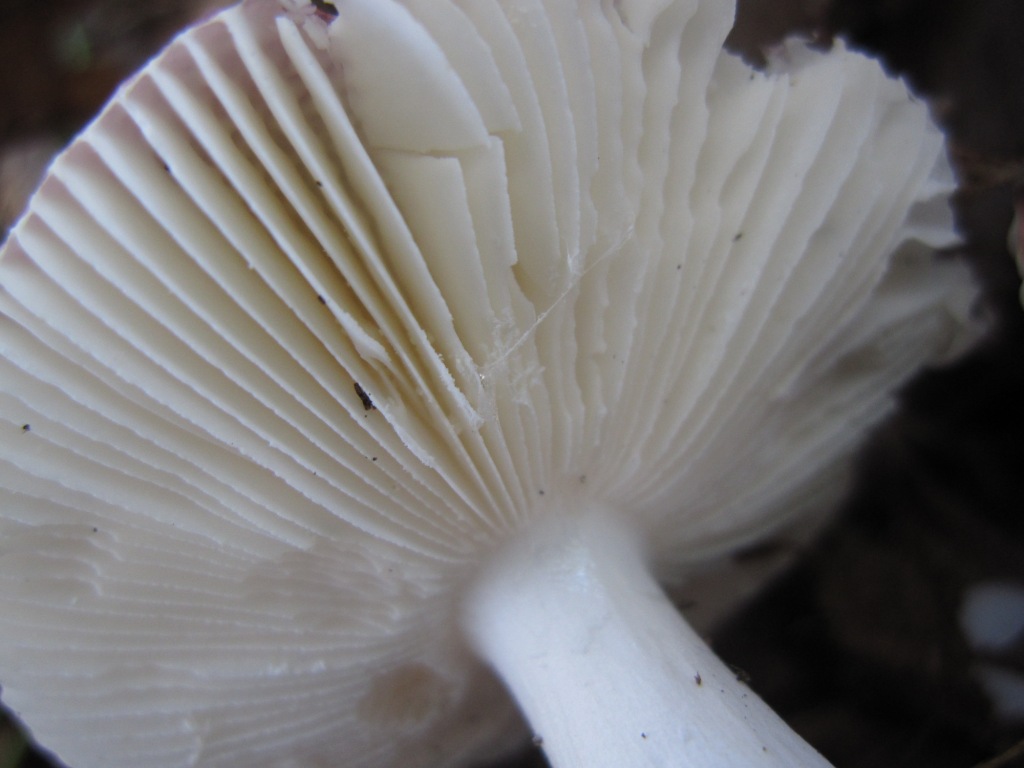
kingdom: Fungi
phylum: Basidiomycota
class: Agaricomycetes
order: Russulales
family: Russulaceae
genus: Russula
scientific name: Russula fragilis
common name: Fragile brittlegill
